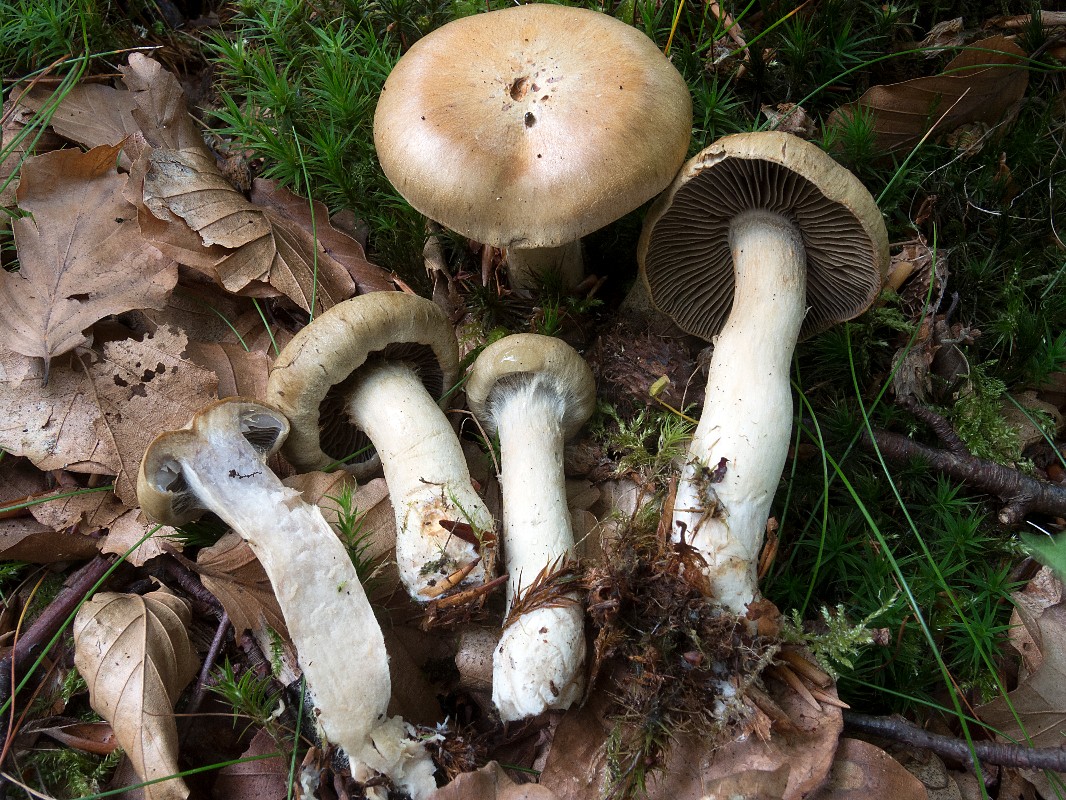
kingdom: Fungi
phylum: Basidiomycota
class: Agaricomycetes
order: Agaricales
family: Cortinariaceae
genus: Cortinarius
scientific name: Cortinarius subtortus
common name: olivengul slørhat
